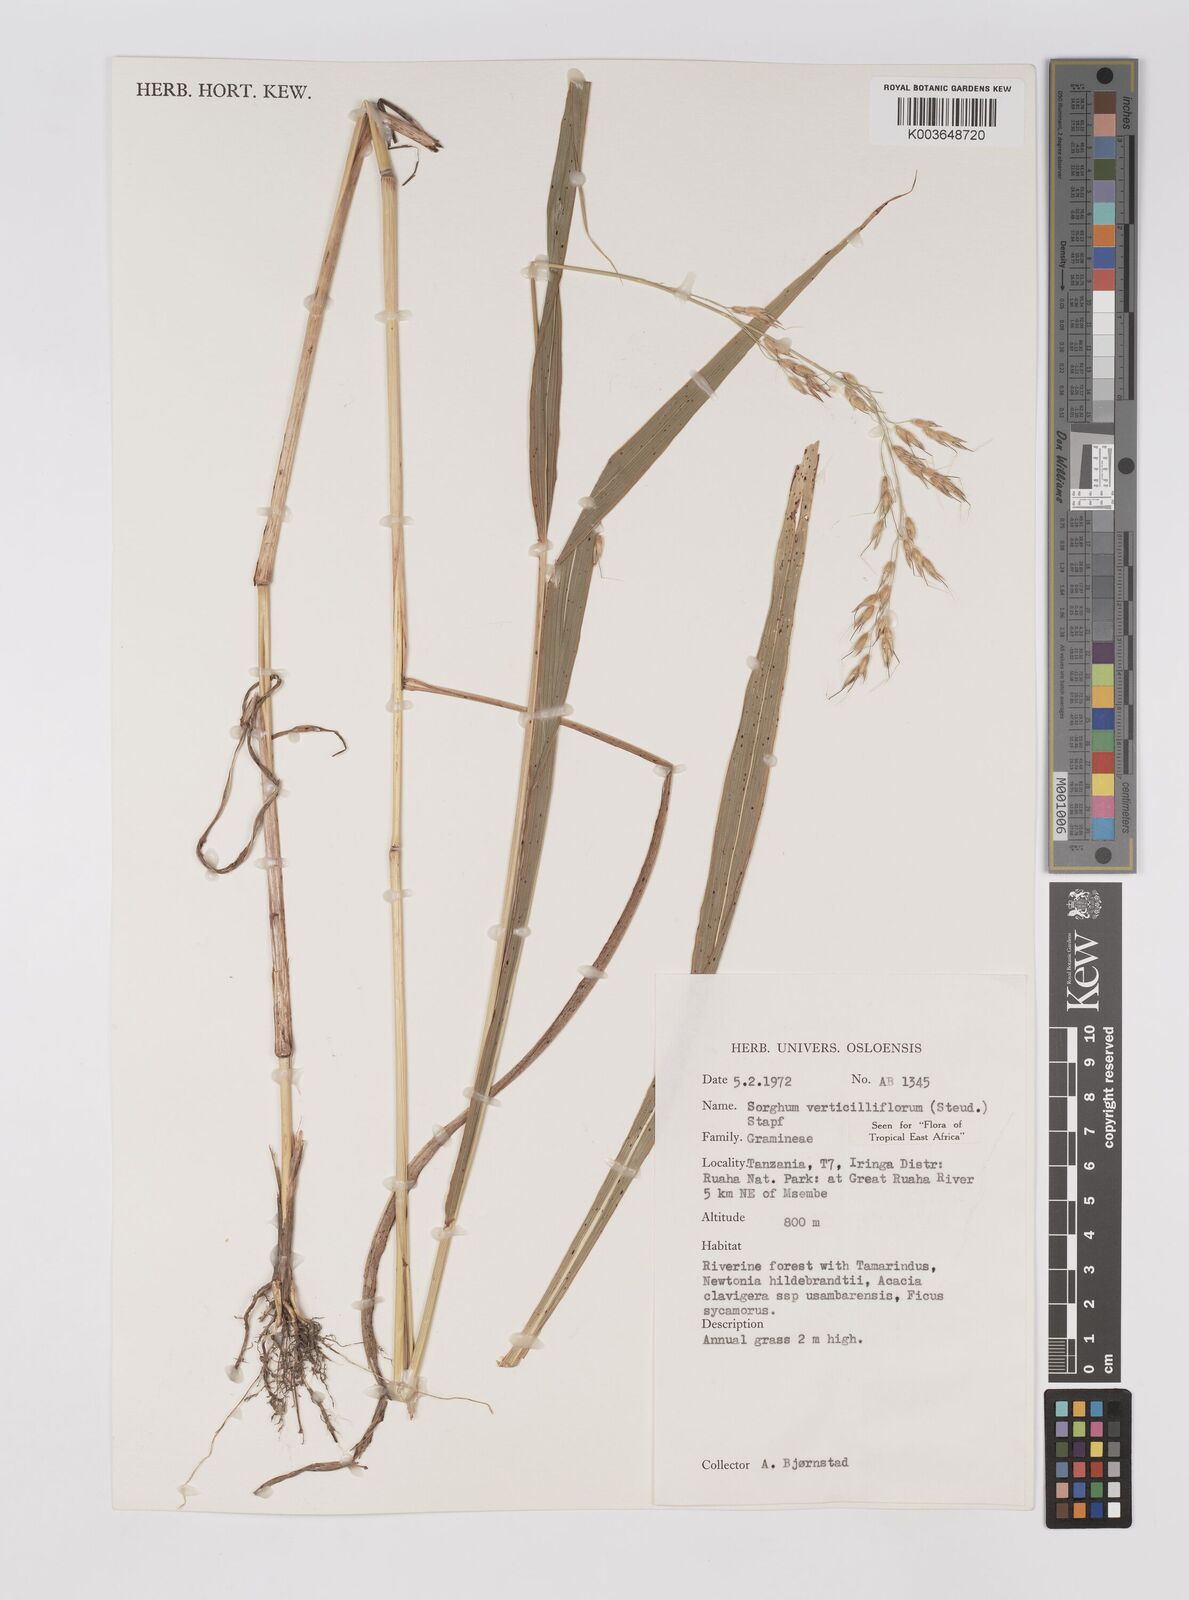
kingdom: Plantae
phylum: Tracheophyta
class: Liliopsida
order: Poales
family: Poaceae
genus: Sorghum
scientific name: Sorghum arundinaceum
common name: Sorghum
